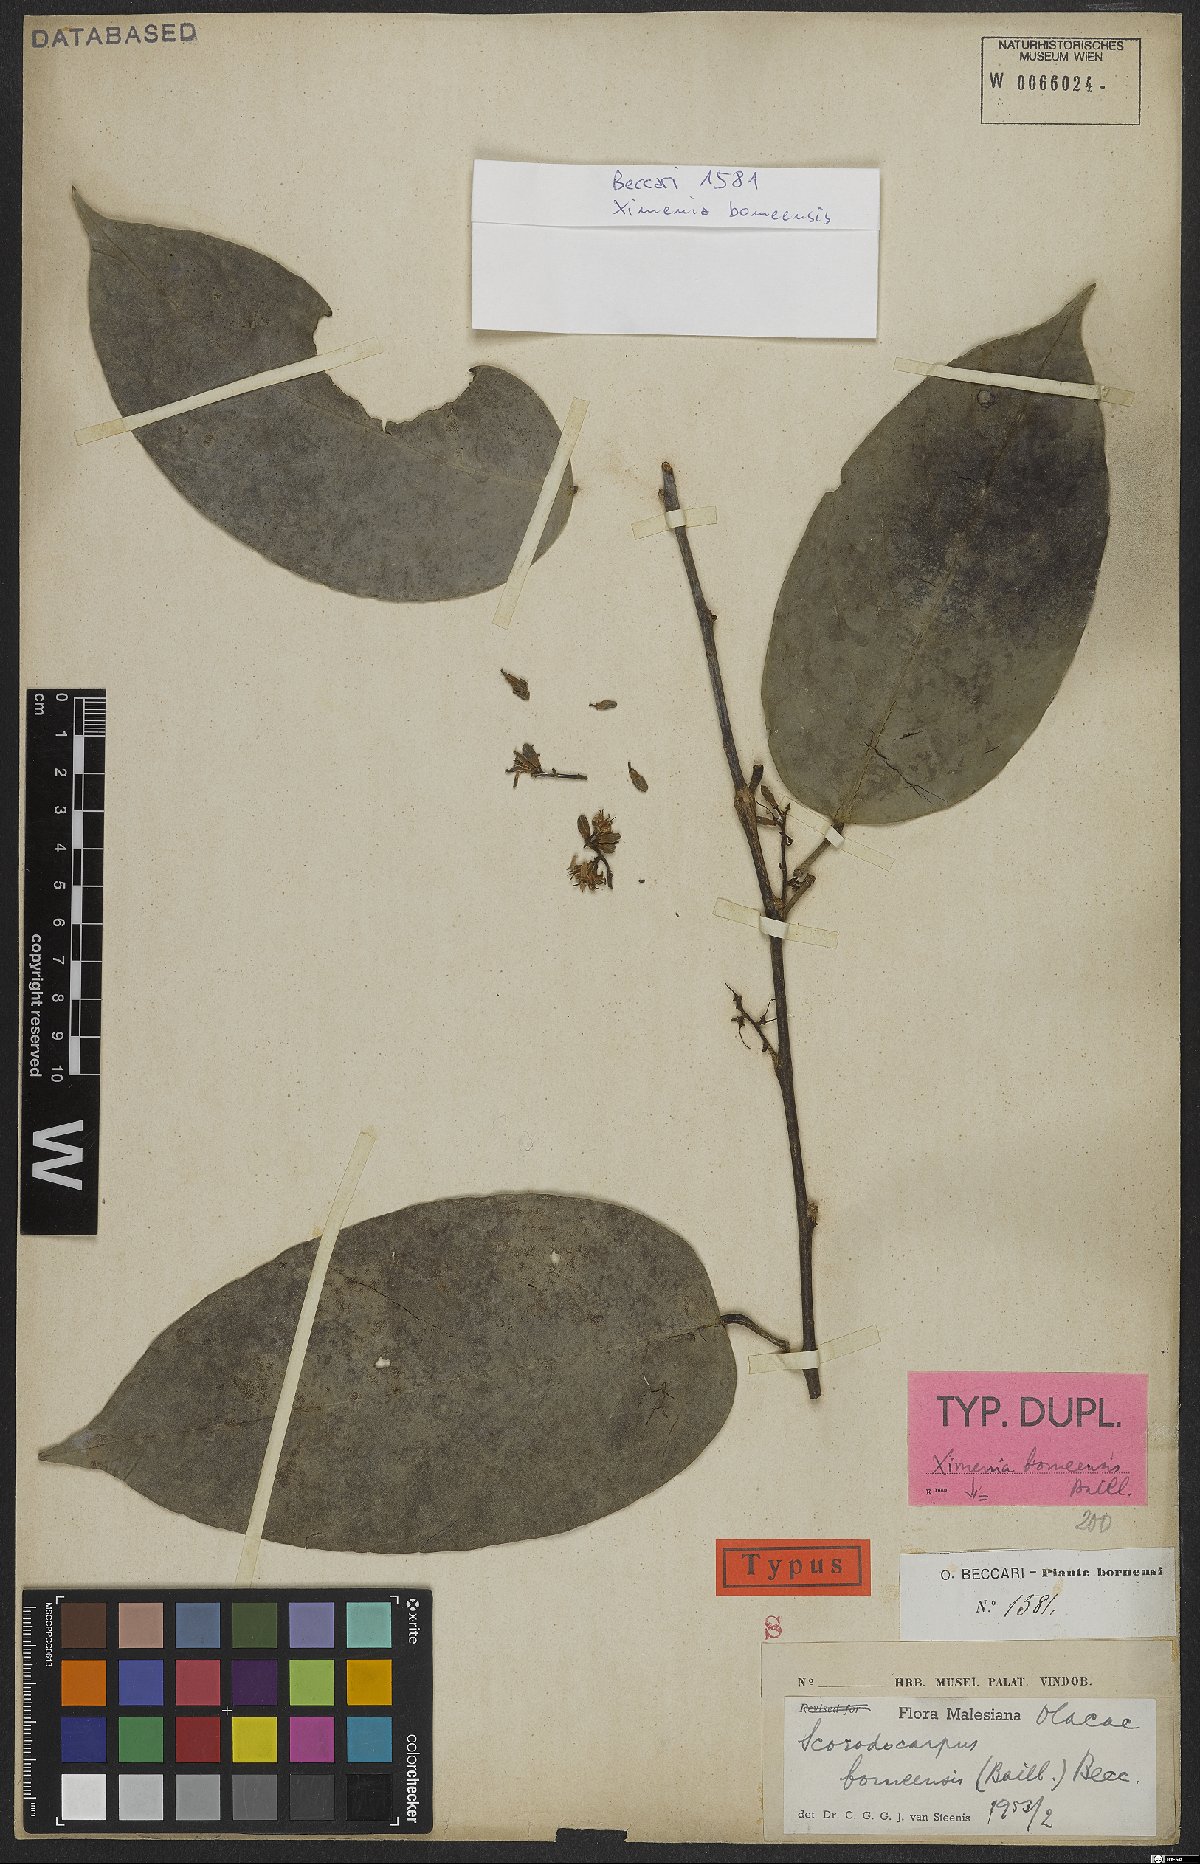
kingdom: Plantae
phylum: Tracheophyta
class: Magnoliopsida
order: Santalales
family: Strombosiaceae
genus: Scorodocarpus
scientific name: Scorodocarpus borneensis
